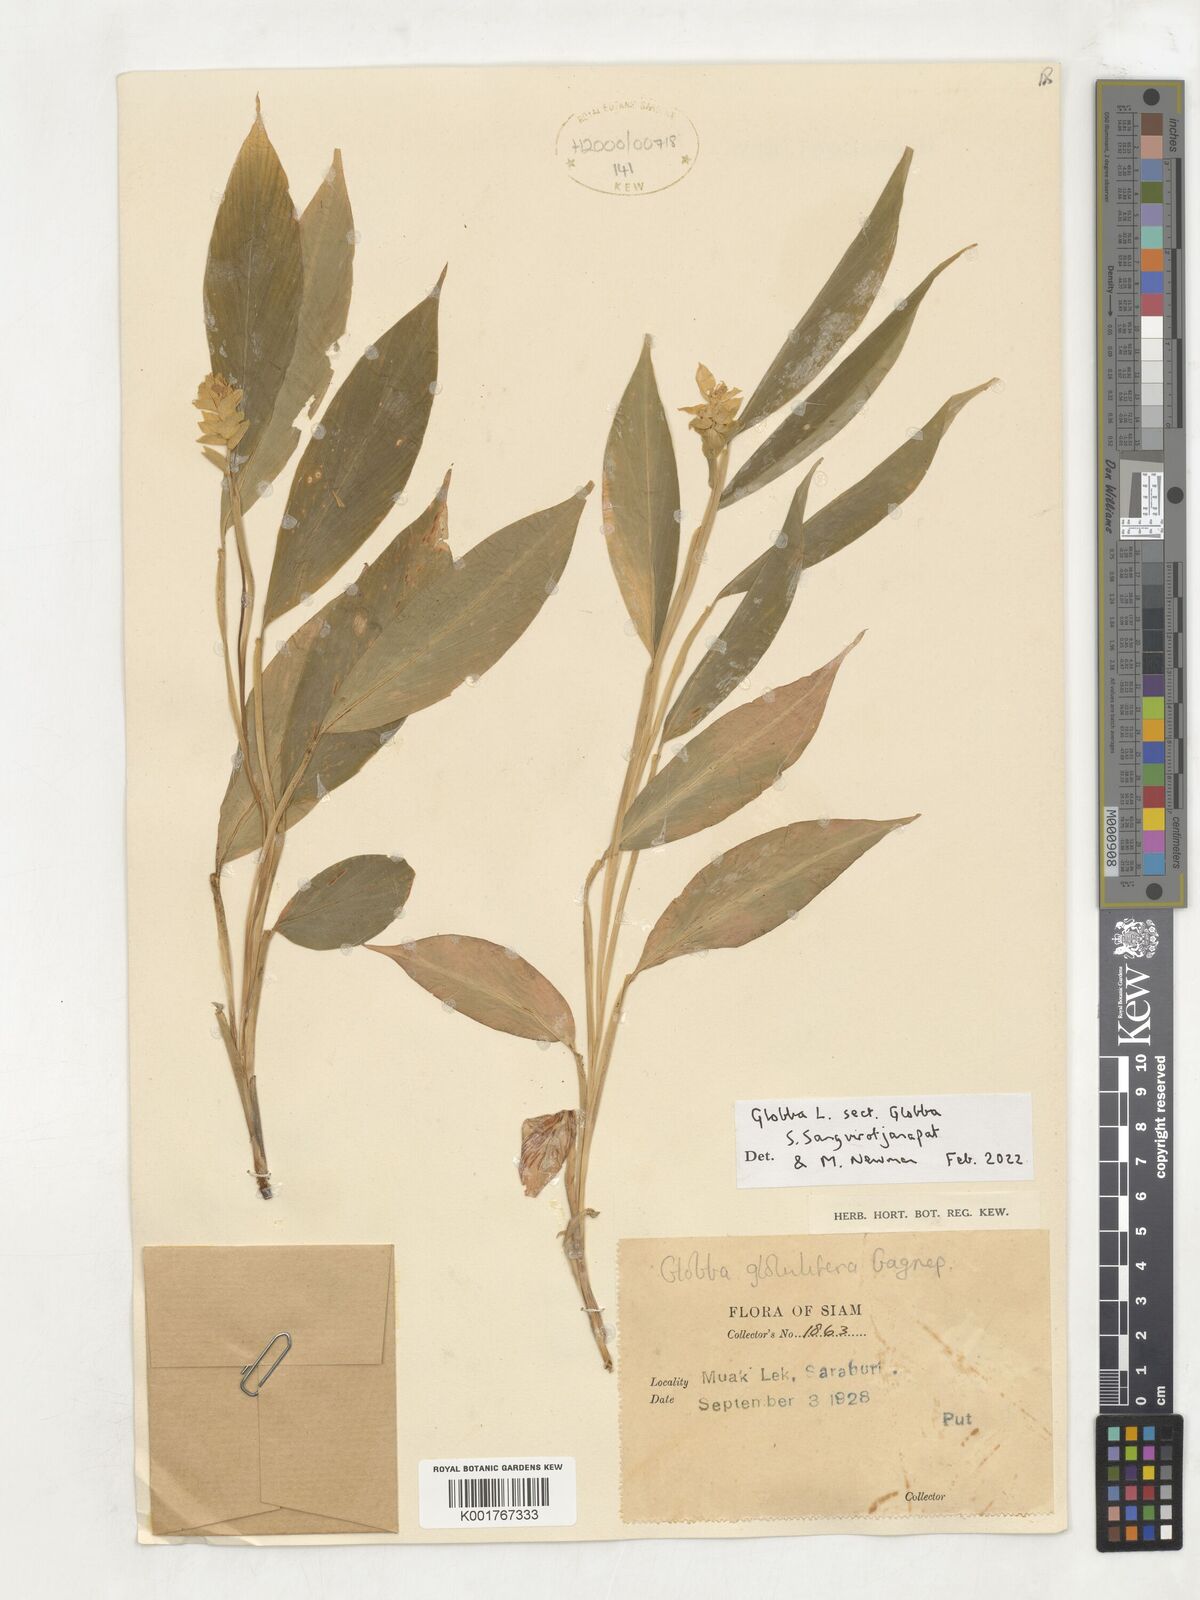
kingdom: Plantae
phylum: Tracheophyta
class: Liliopsida
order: Zingiberales
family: Zingiberaceae
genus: Globba
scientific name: Globba
